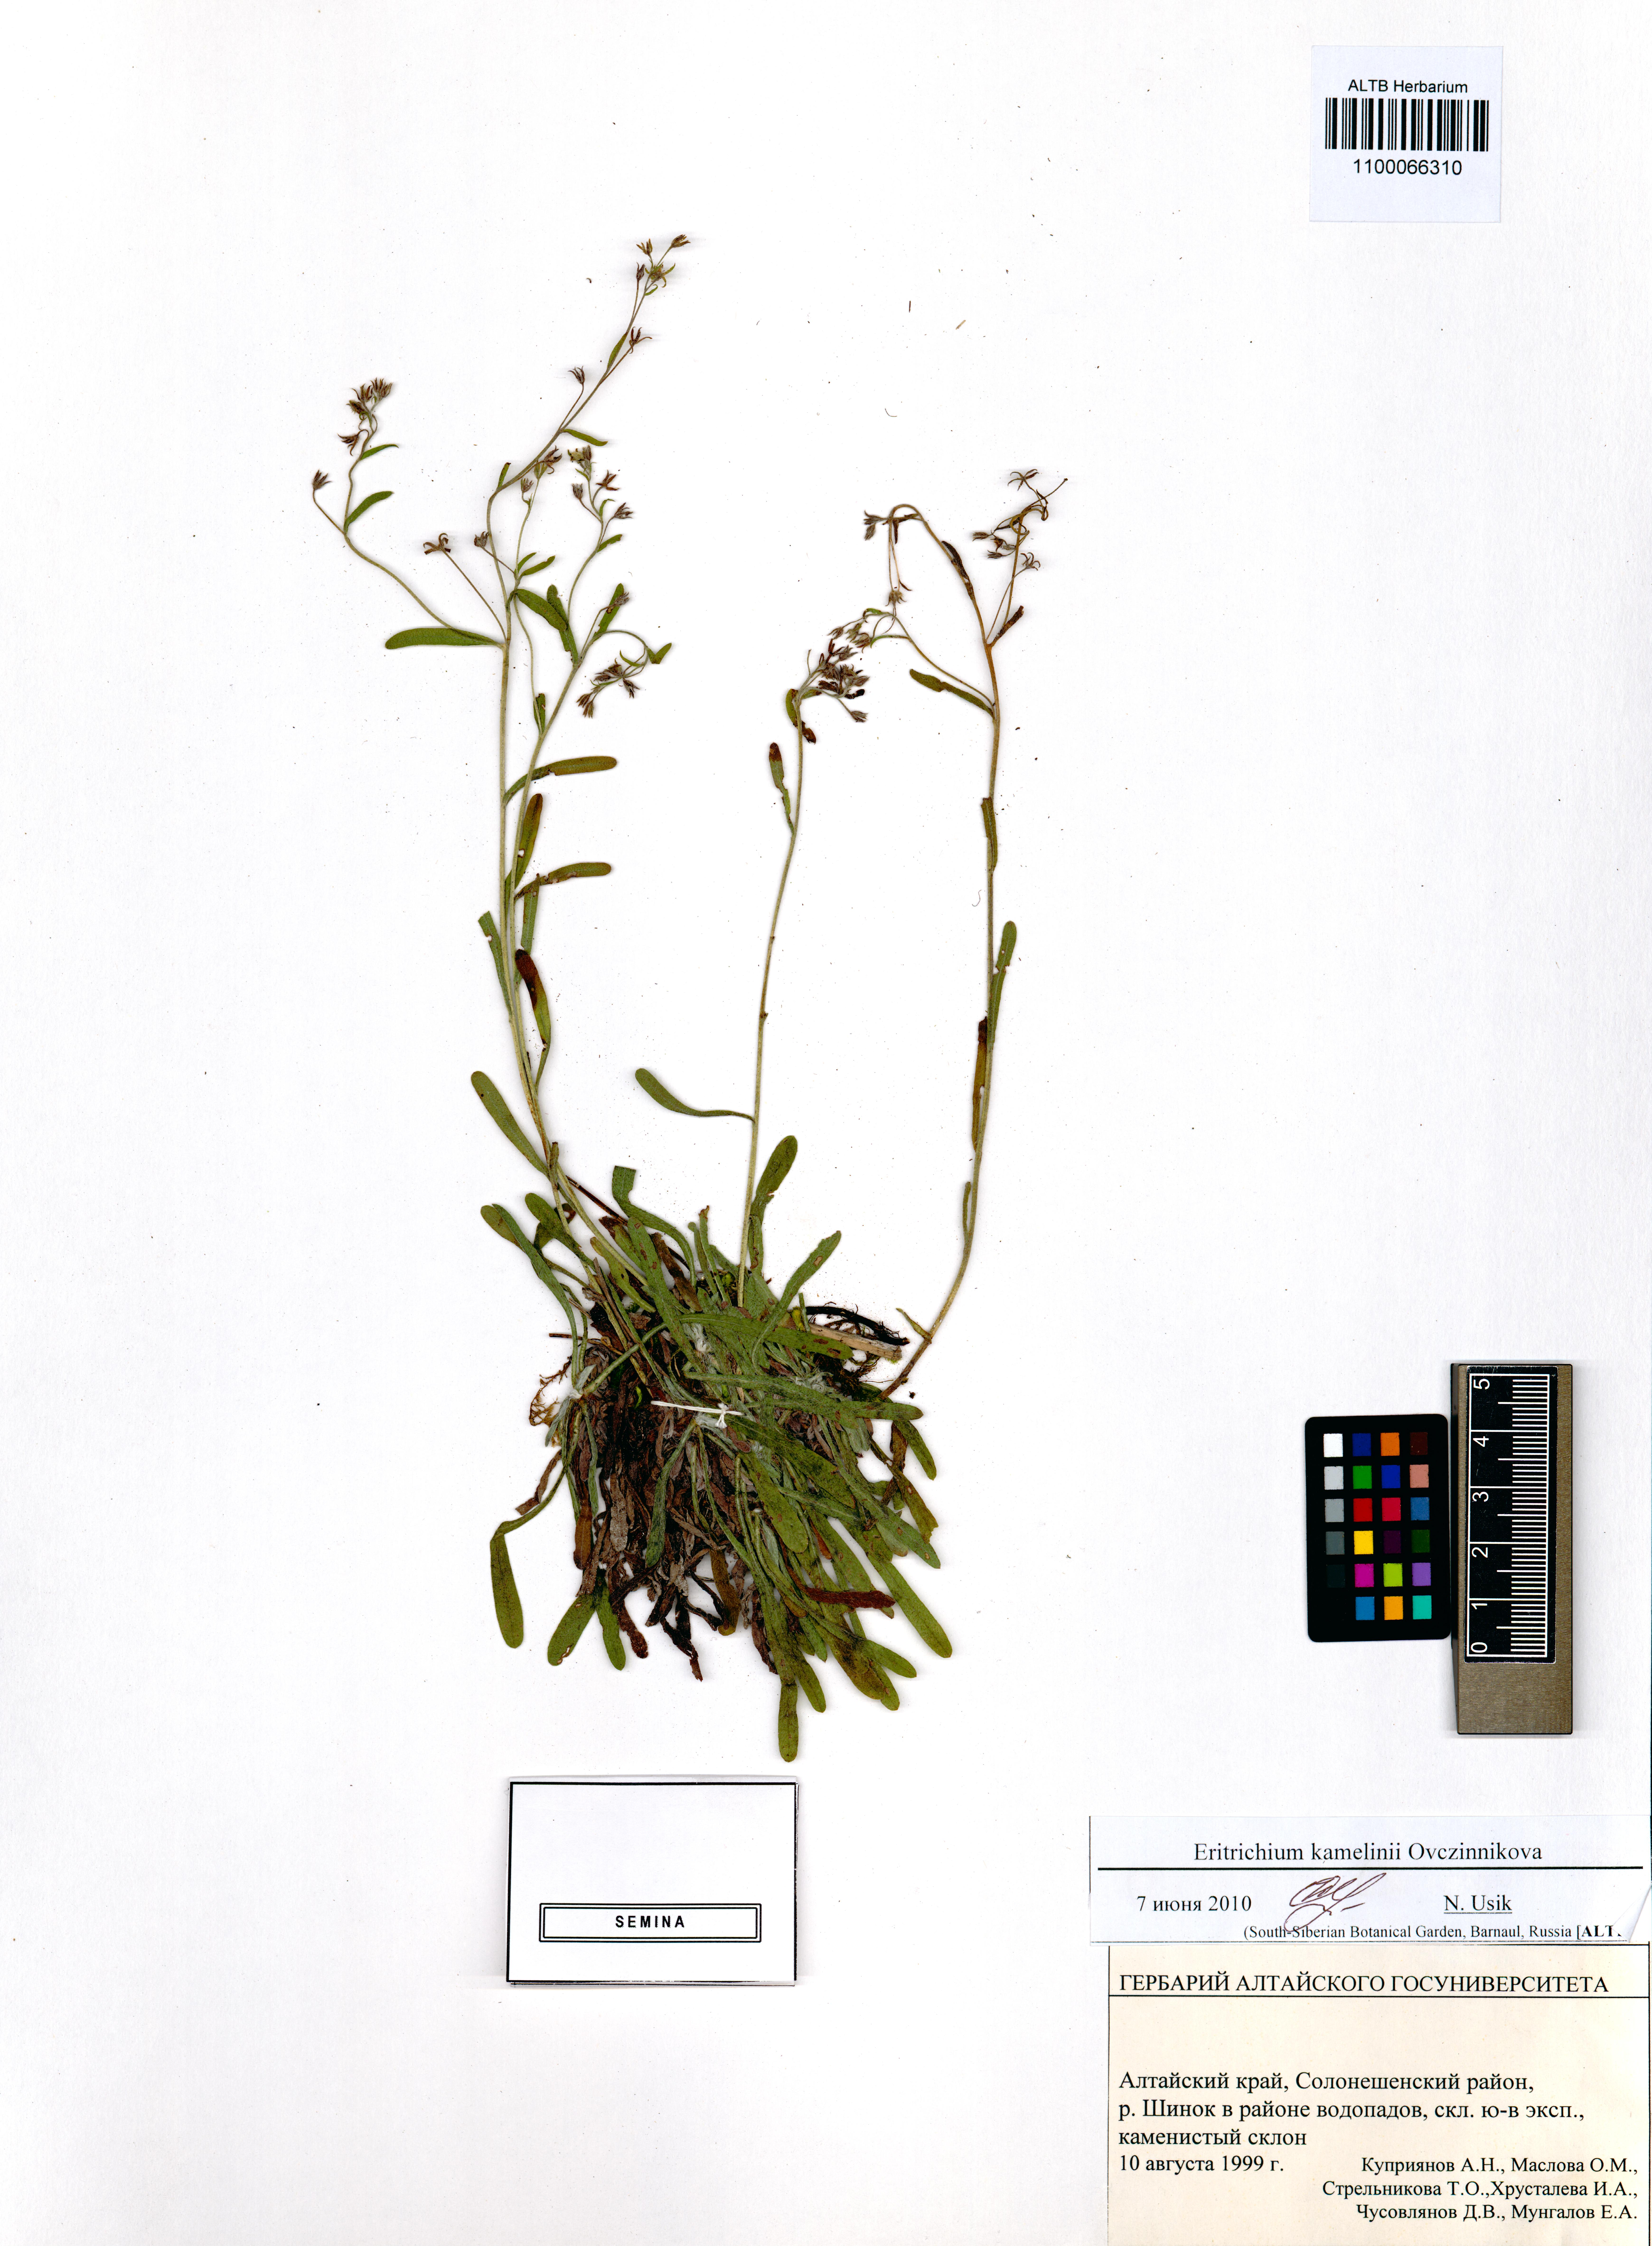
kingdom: Plantae
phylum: Tracheophyta
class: Magnoliopsida
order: Boraginales
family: Boraginaceae
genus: Eritrichium
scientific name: Eritrichium kamelinii
